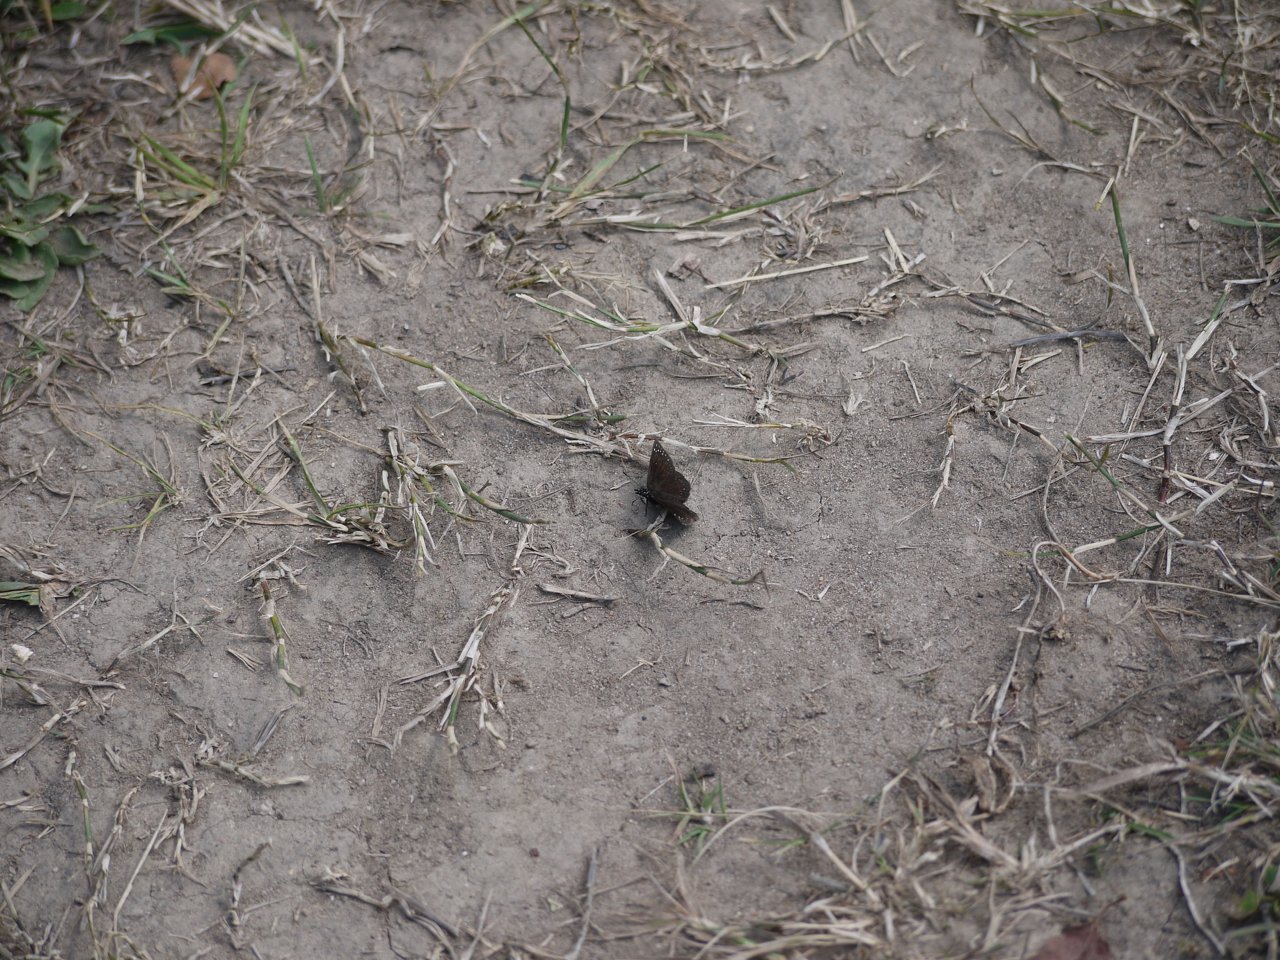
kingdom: Animalia
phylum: Arthropoda
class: Insecta
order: Lepidoptera
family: Hesperiidae
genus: Pholisora
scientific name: Pholisora catullus
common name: Common Sootywing
